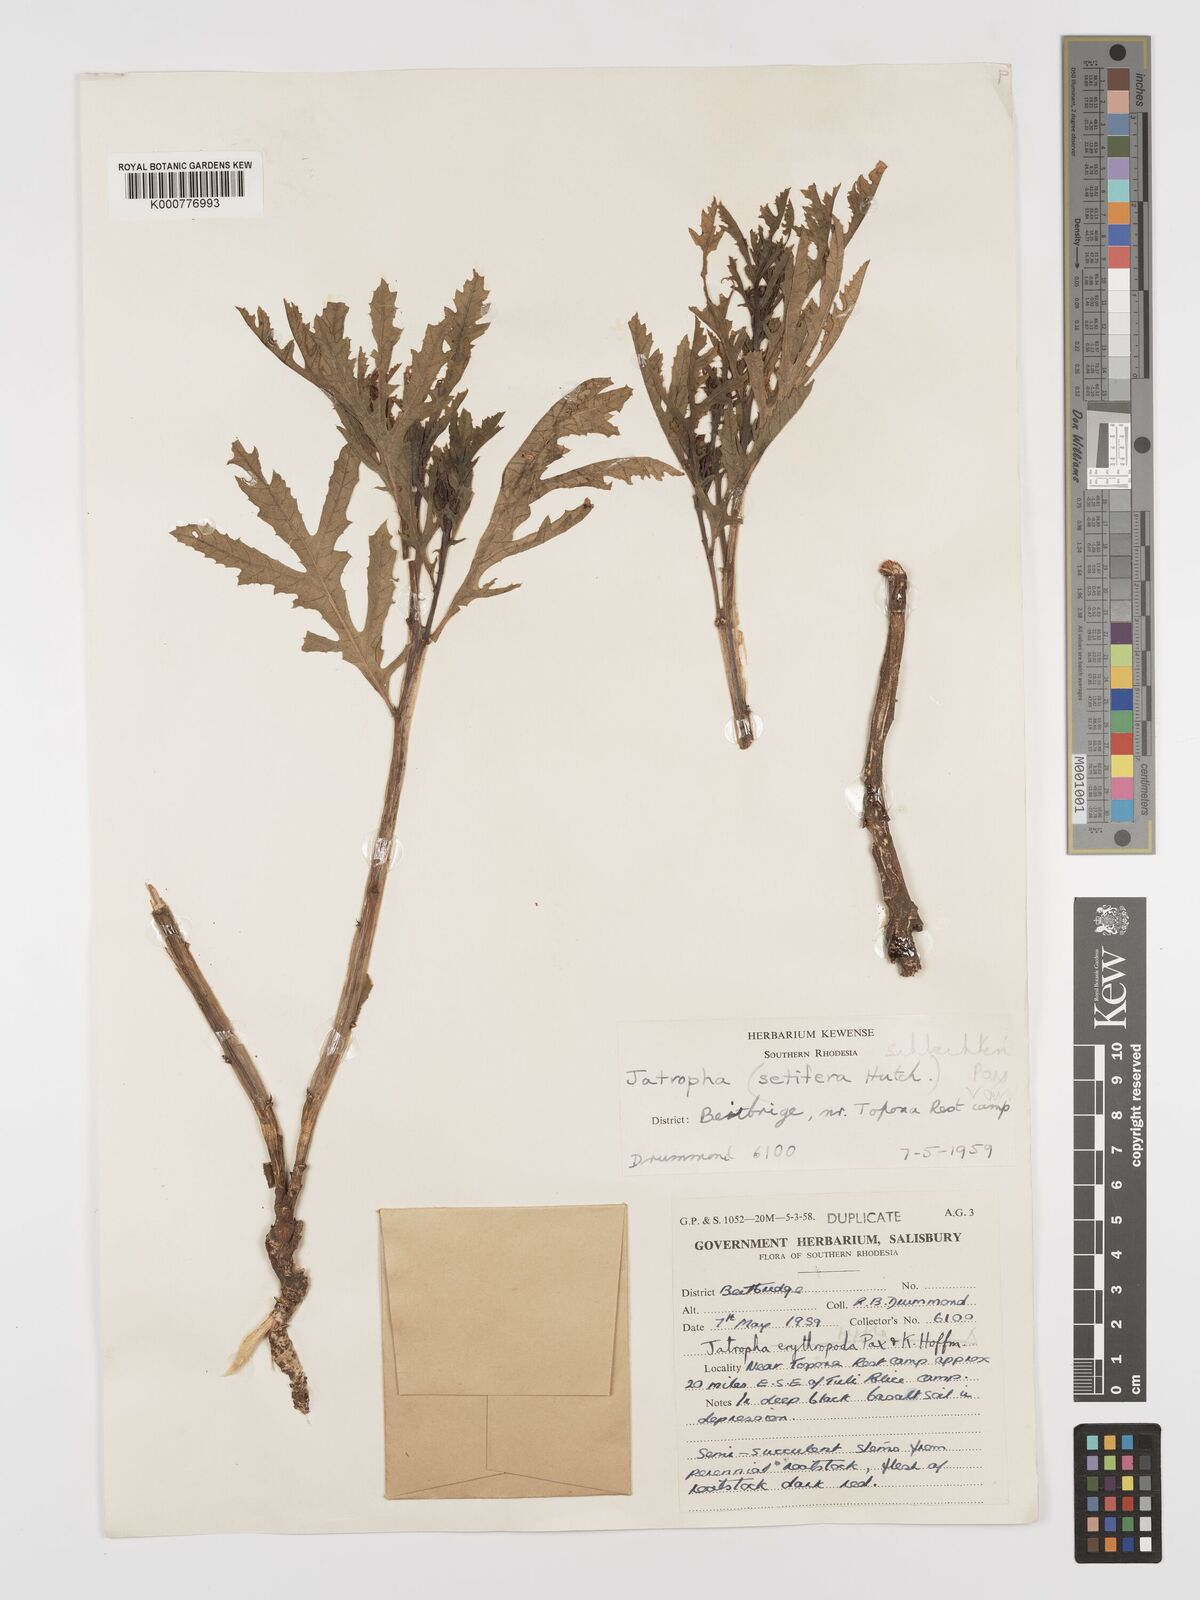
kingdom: Plantae
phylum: Tracheophyta
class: Magnoliopsida
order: Malpighiales
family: Euphorbiaceae
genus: Jatropha
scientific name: Jatropha schlechteri
